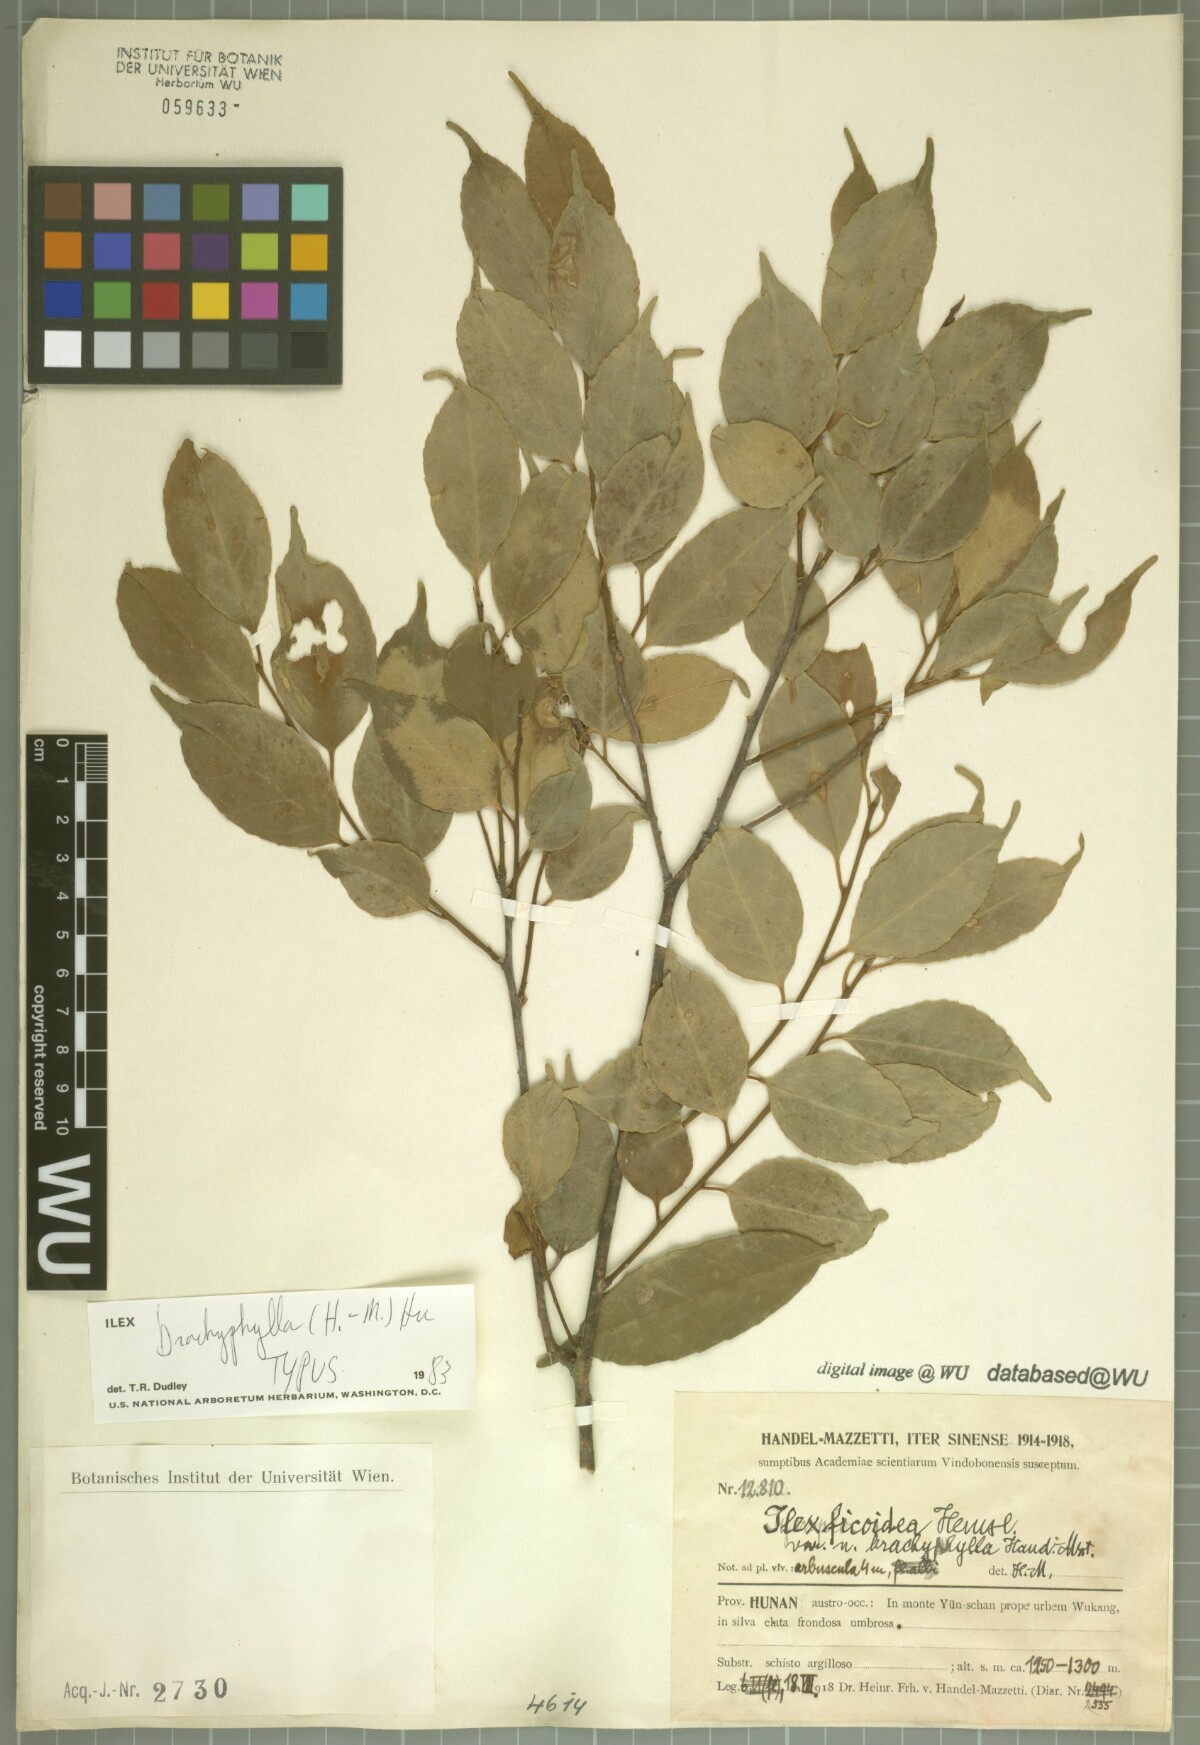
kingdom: Plantae
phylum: Tracheophyta
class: Magnoliopsida
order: Aquifoliales
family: Aquifoliaceae
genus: Ilex
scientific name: Ilex brachyphylla
